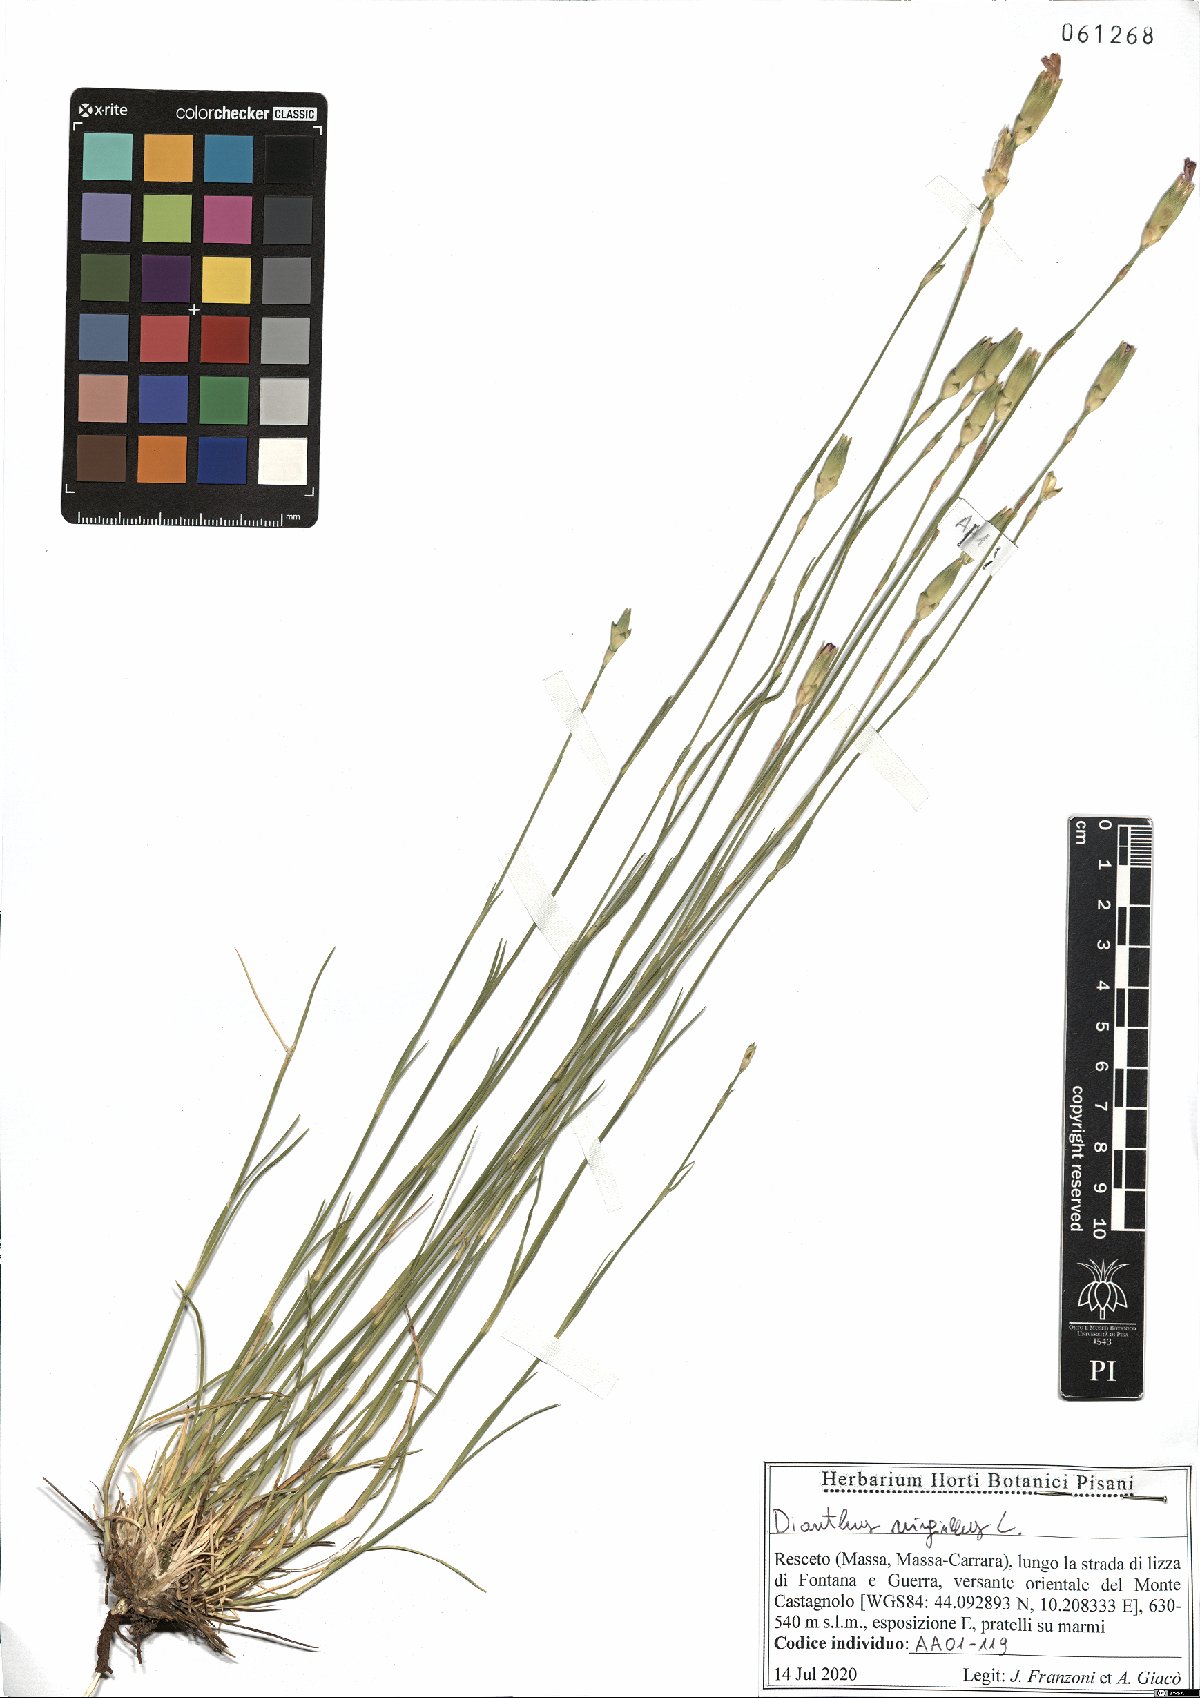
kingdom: Plantae
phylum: Tracheophyta
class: Magnoliopsida
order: Caryophyllales
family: Caryophyllaceae
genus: Dianthus
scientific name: Dianthus virgineus
